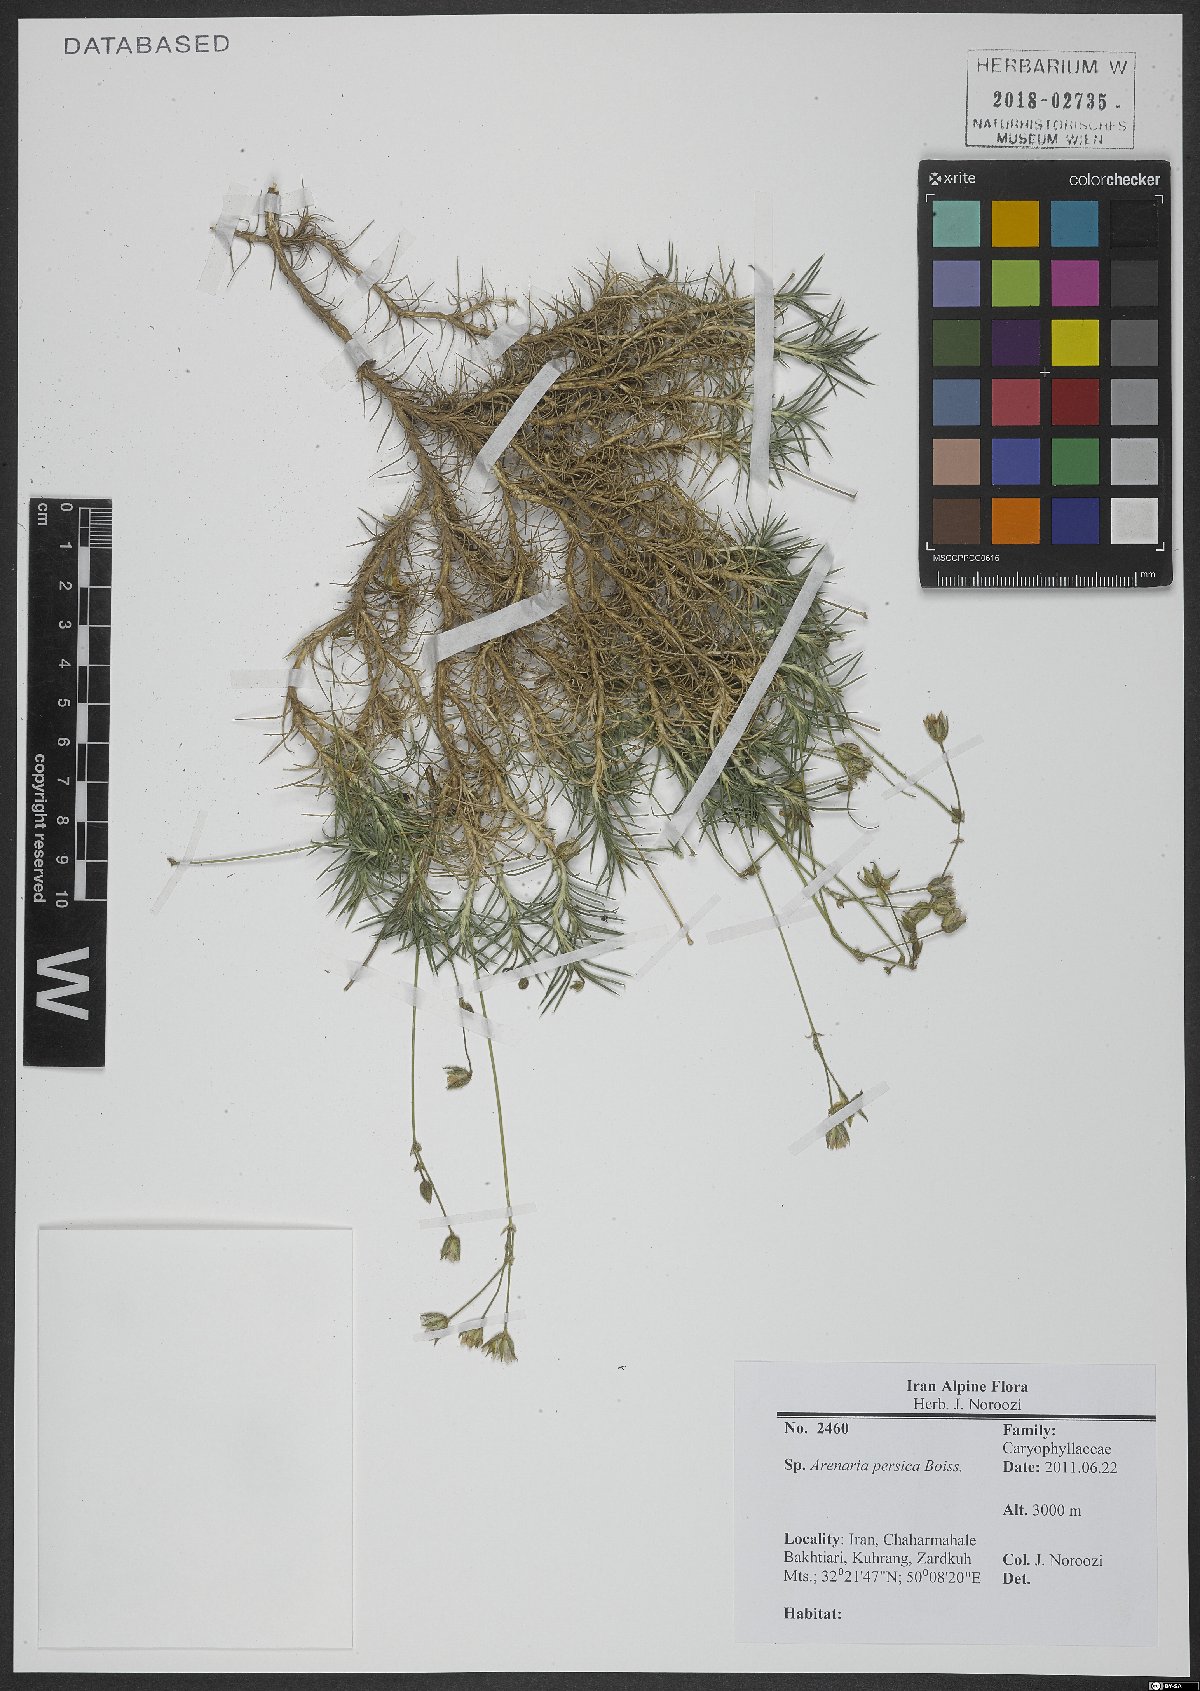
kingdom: Plantae
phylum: Tracheophyta
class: Magnoliopsida
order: Caryophyllales
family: Caryophyllaceae
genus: Eremogone
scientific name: Eremogone persica
